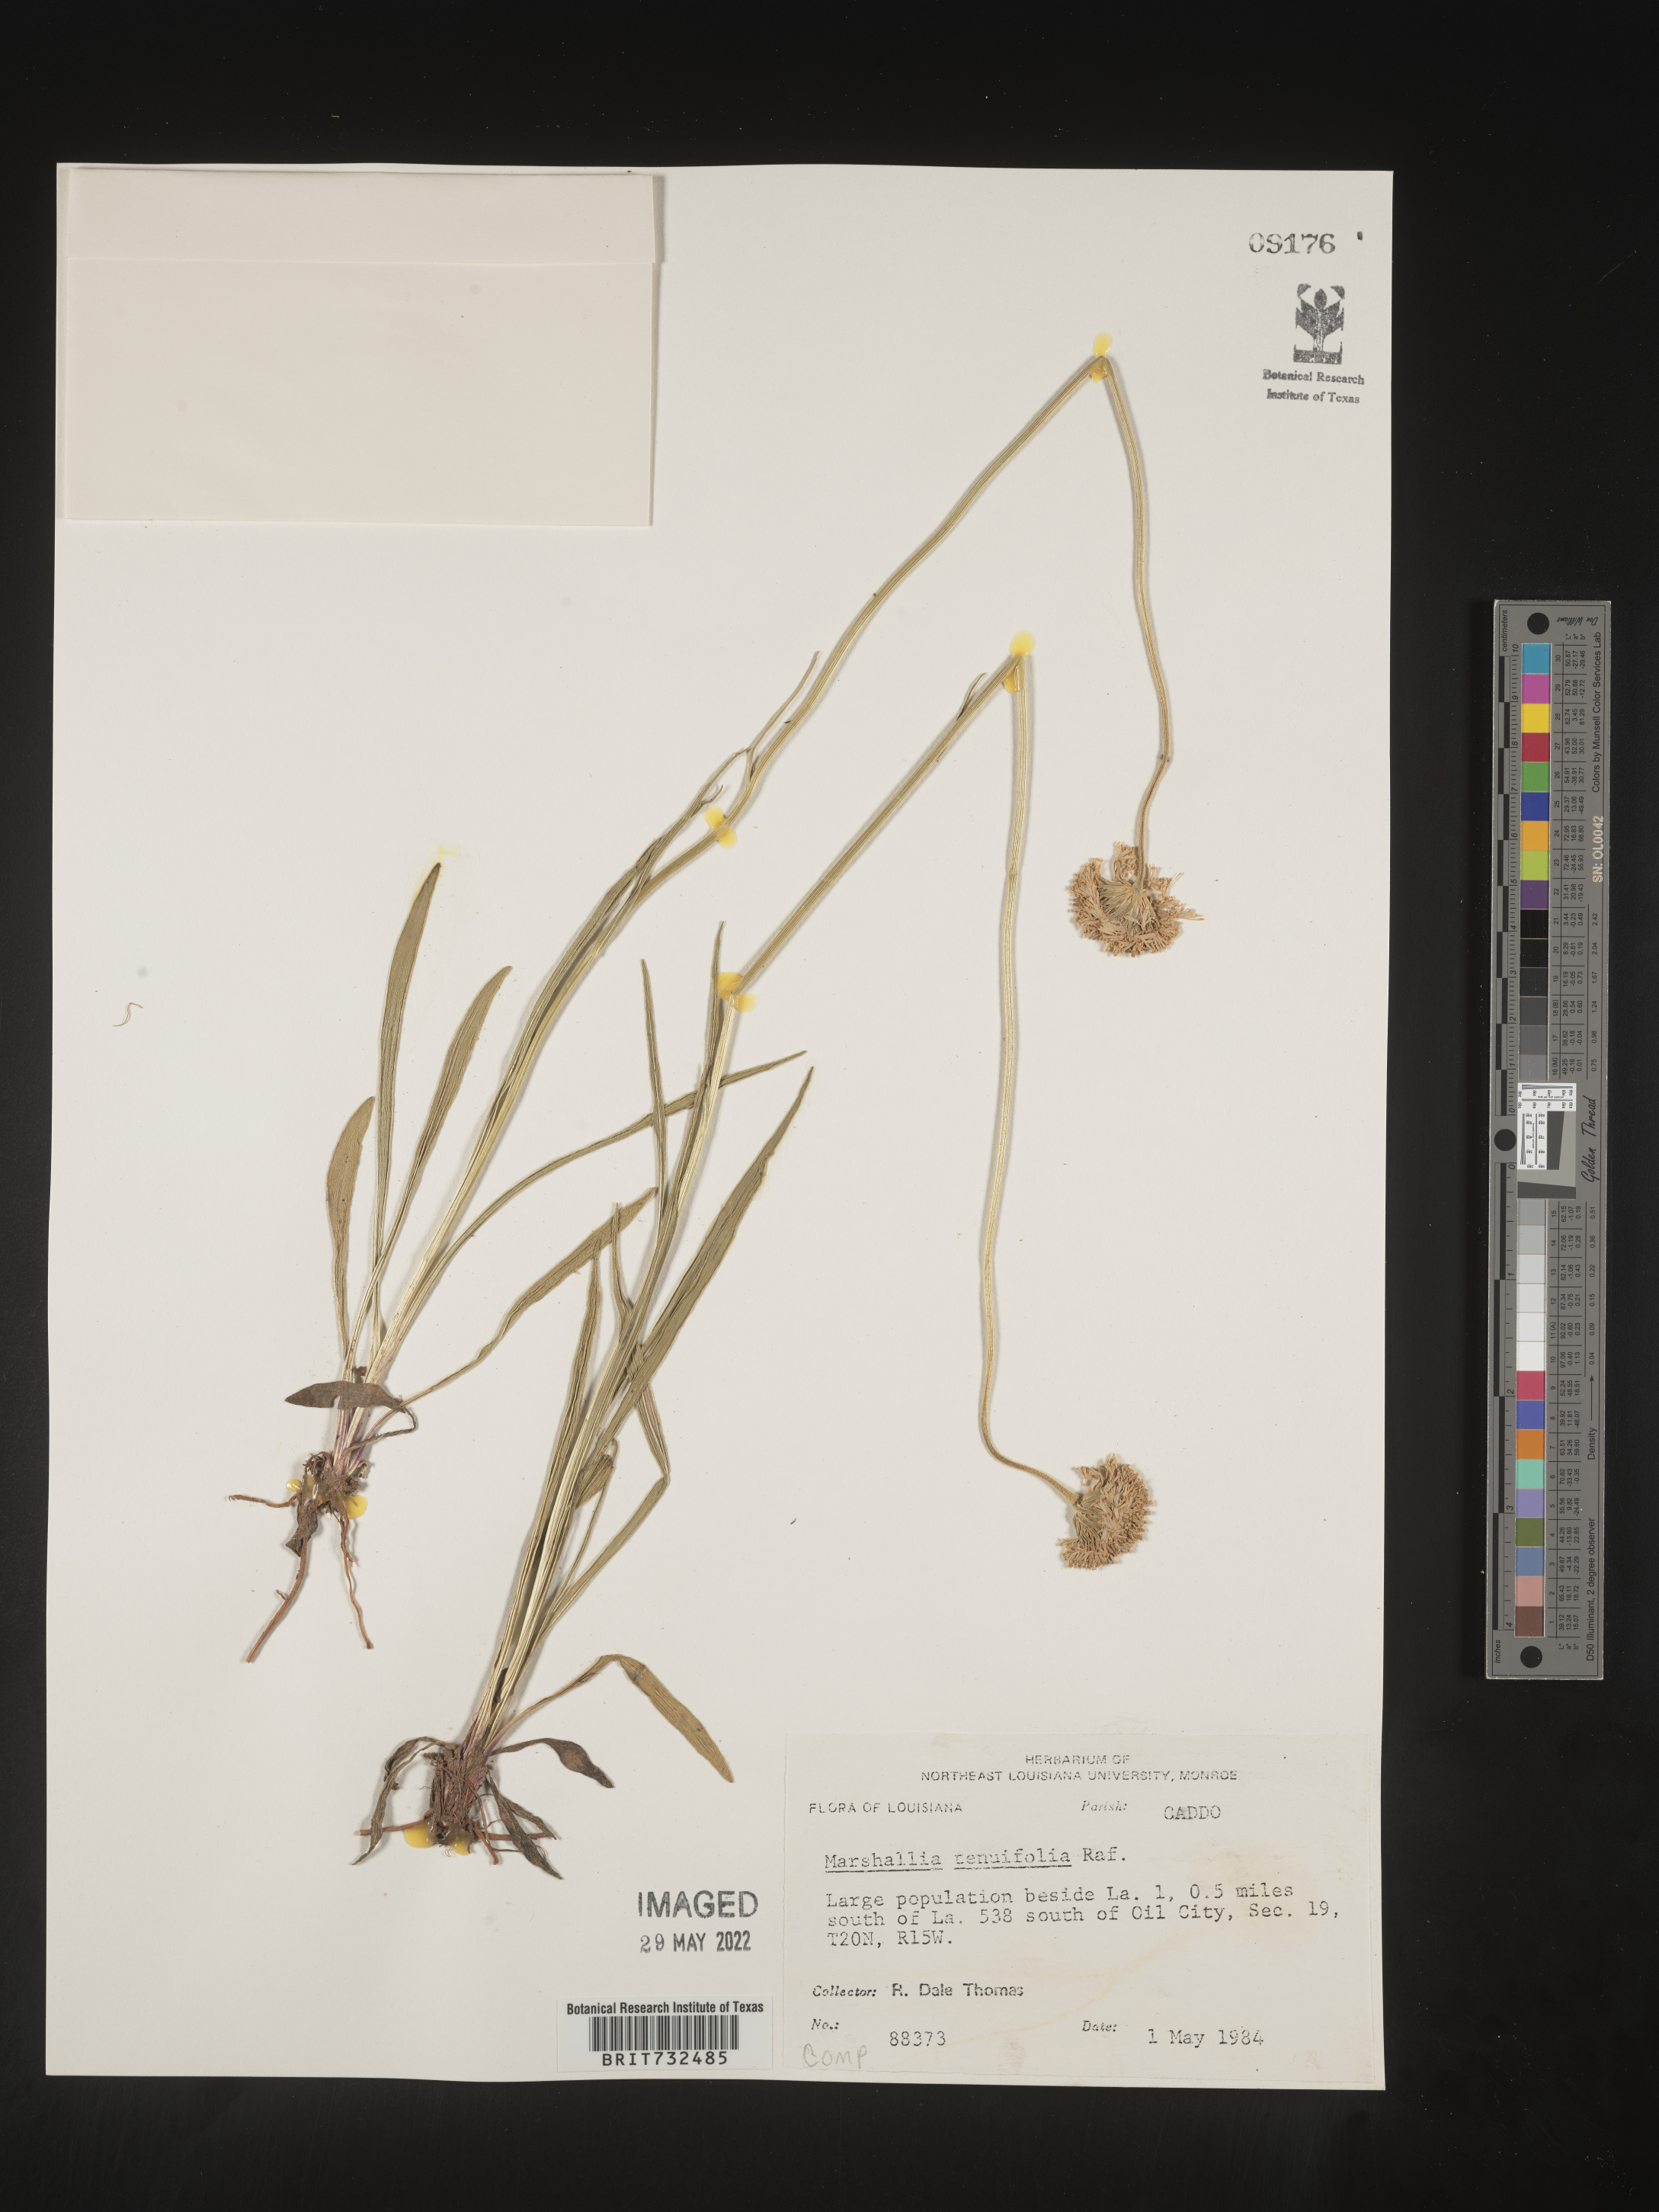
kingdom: Plantae
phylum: Tracheophyta
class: Magnoliopsida
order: Asterales
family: Asteraceae
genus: Marshallia
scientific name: Marshallia graminifolia
